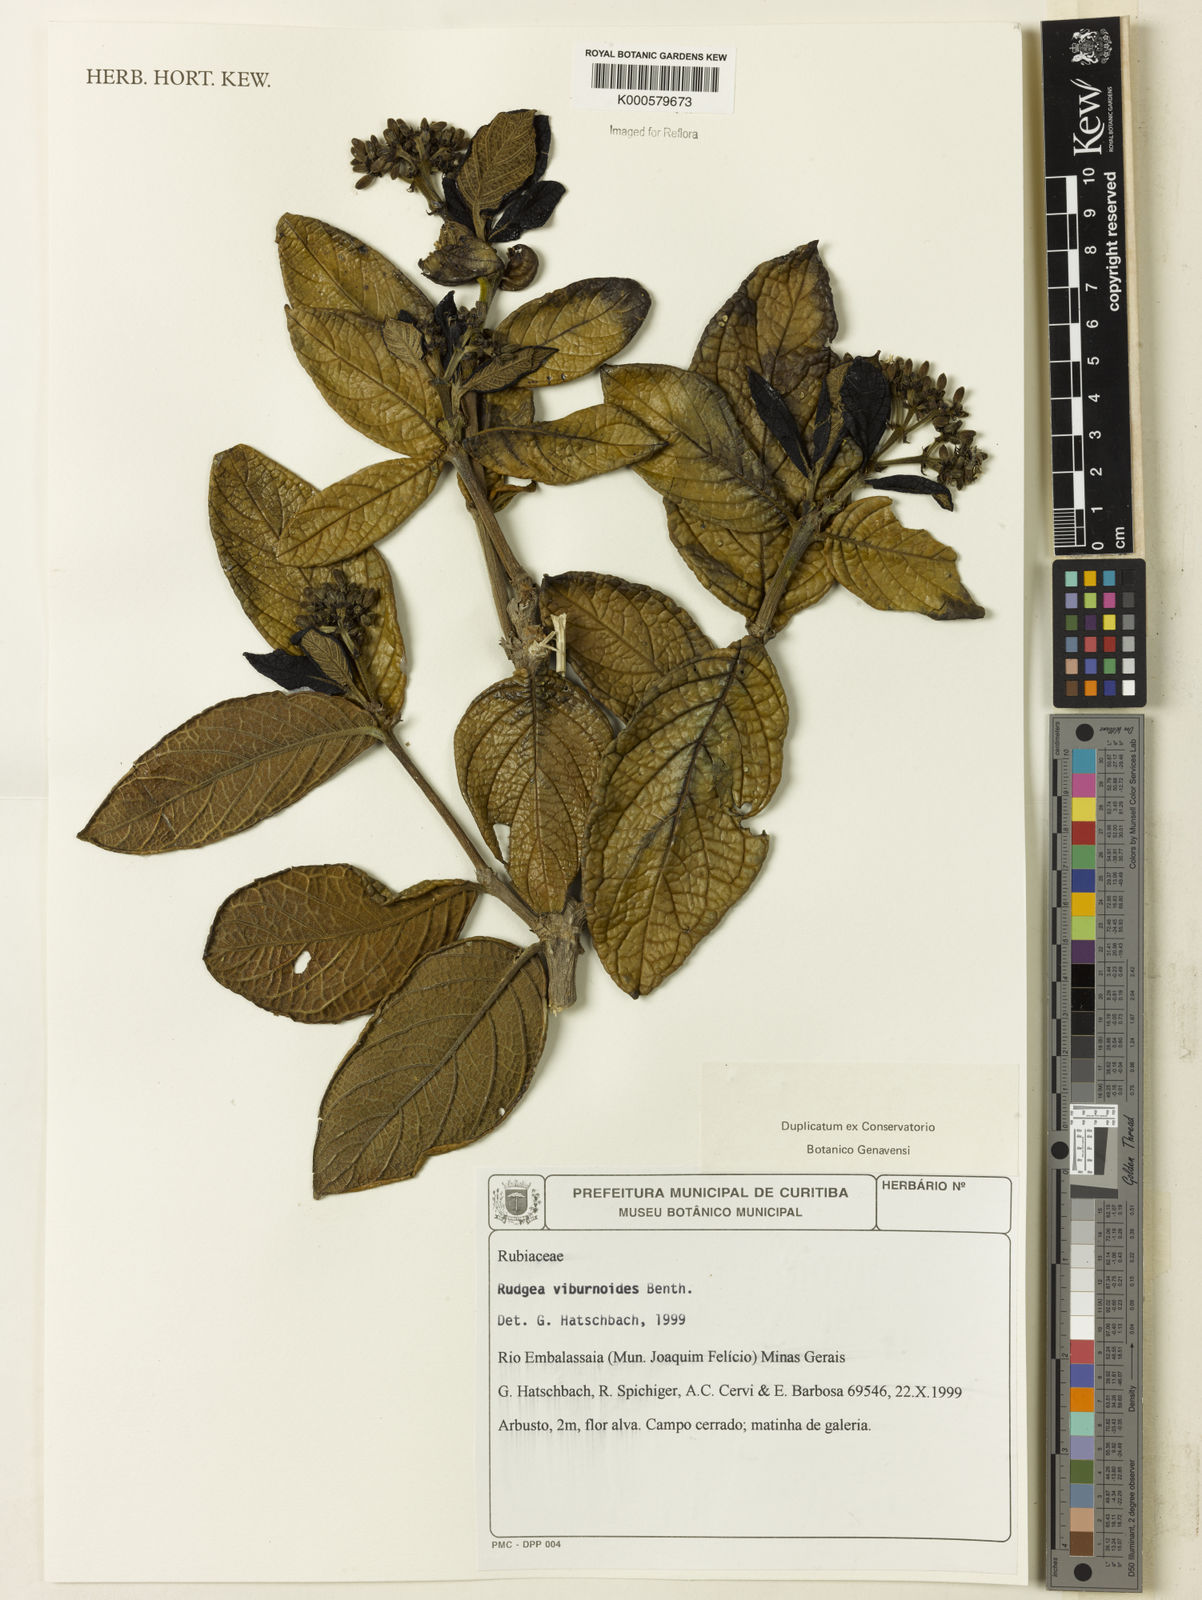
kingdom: Plantae
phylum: Tracheophyta
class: Magnoliopsida
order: Gentianales
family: Rubiaceae
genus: Rudgea
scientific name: Rudgea viburnoides
